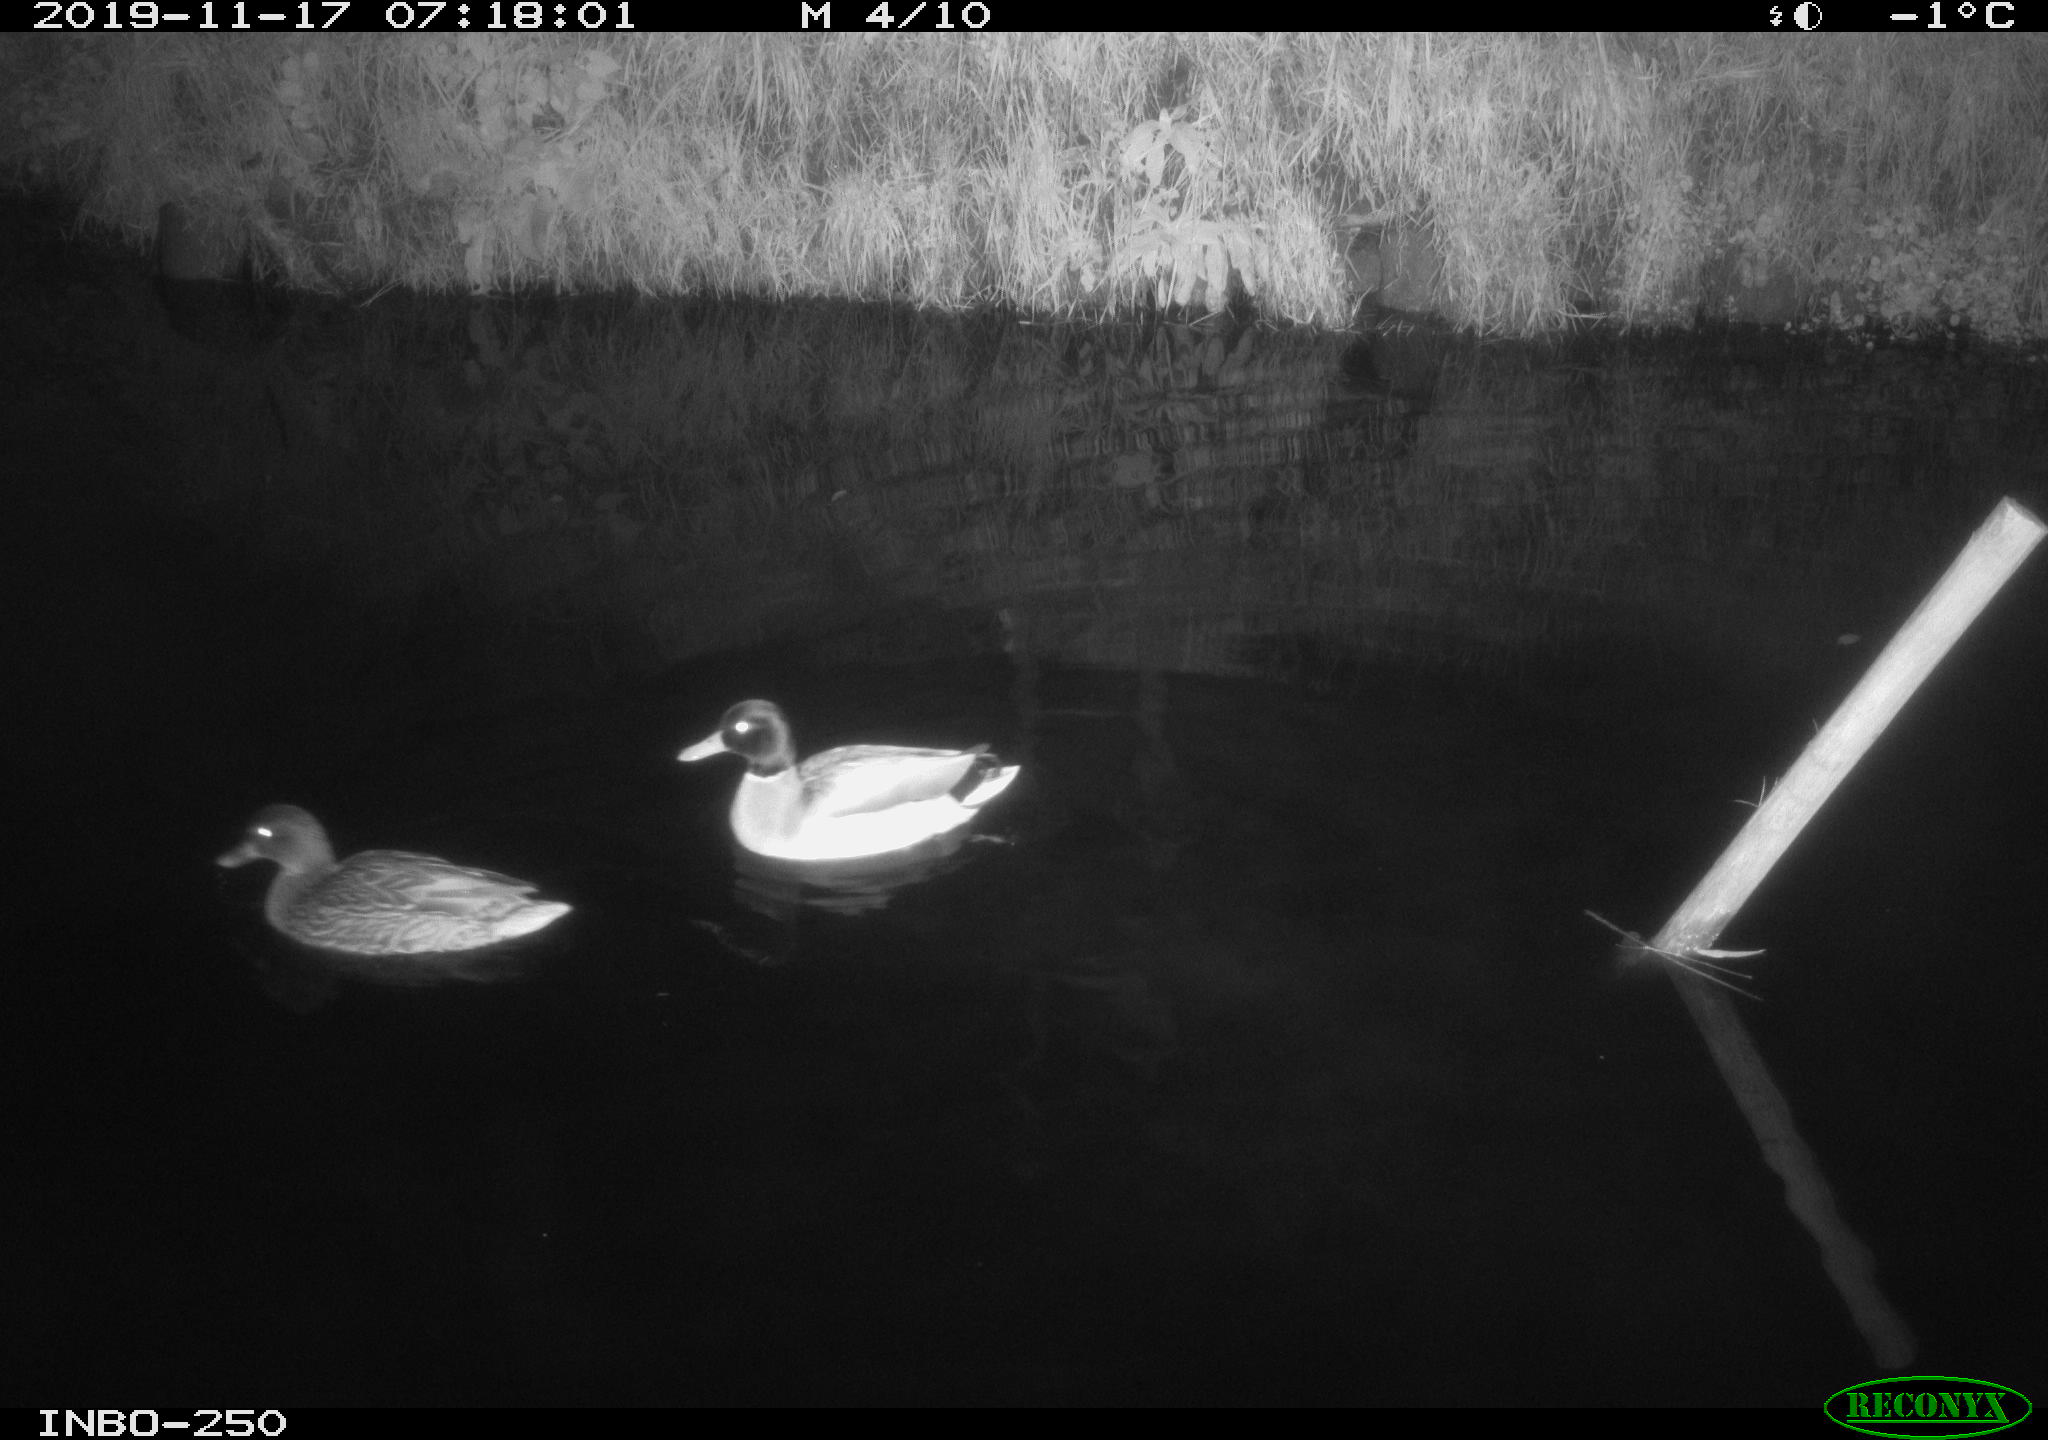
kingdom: Animalia
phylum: Chordata
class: Aves
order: Anseriformes
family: Anatidae
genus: Anas
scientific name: Anas platyrhynchos
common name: Mallard
